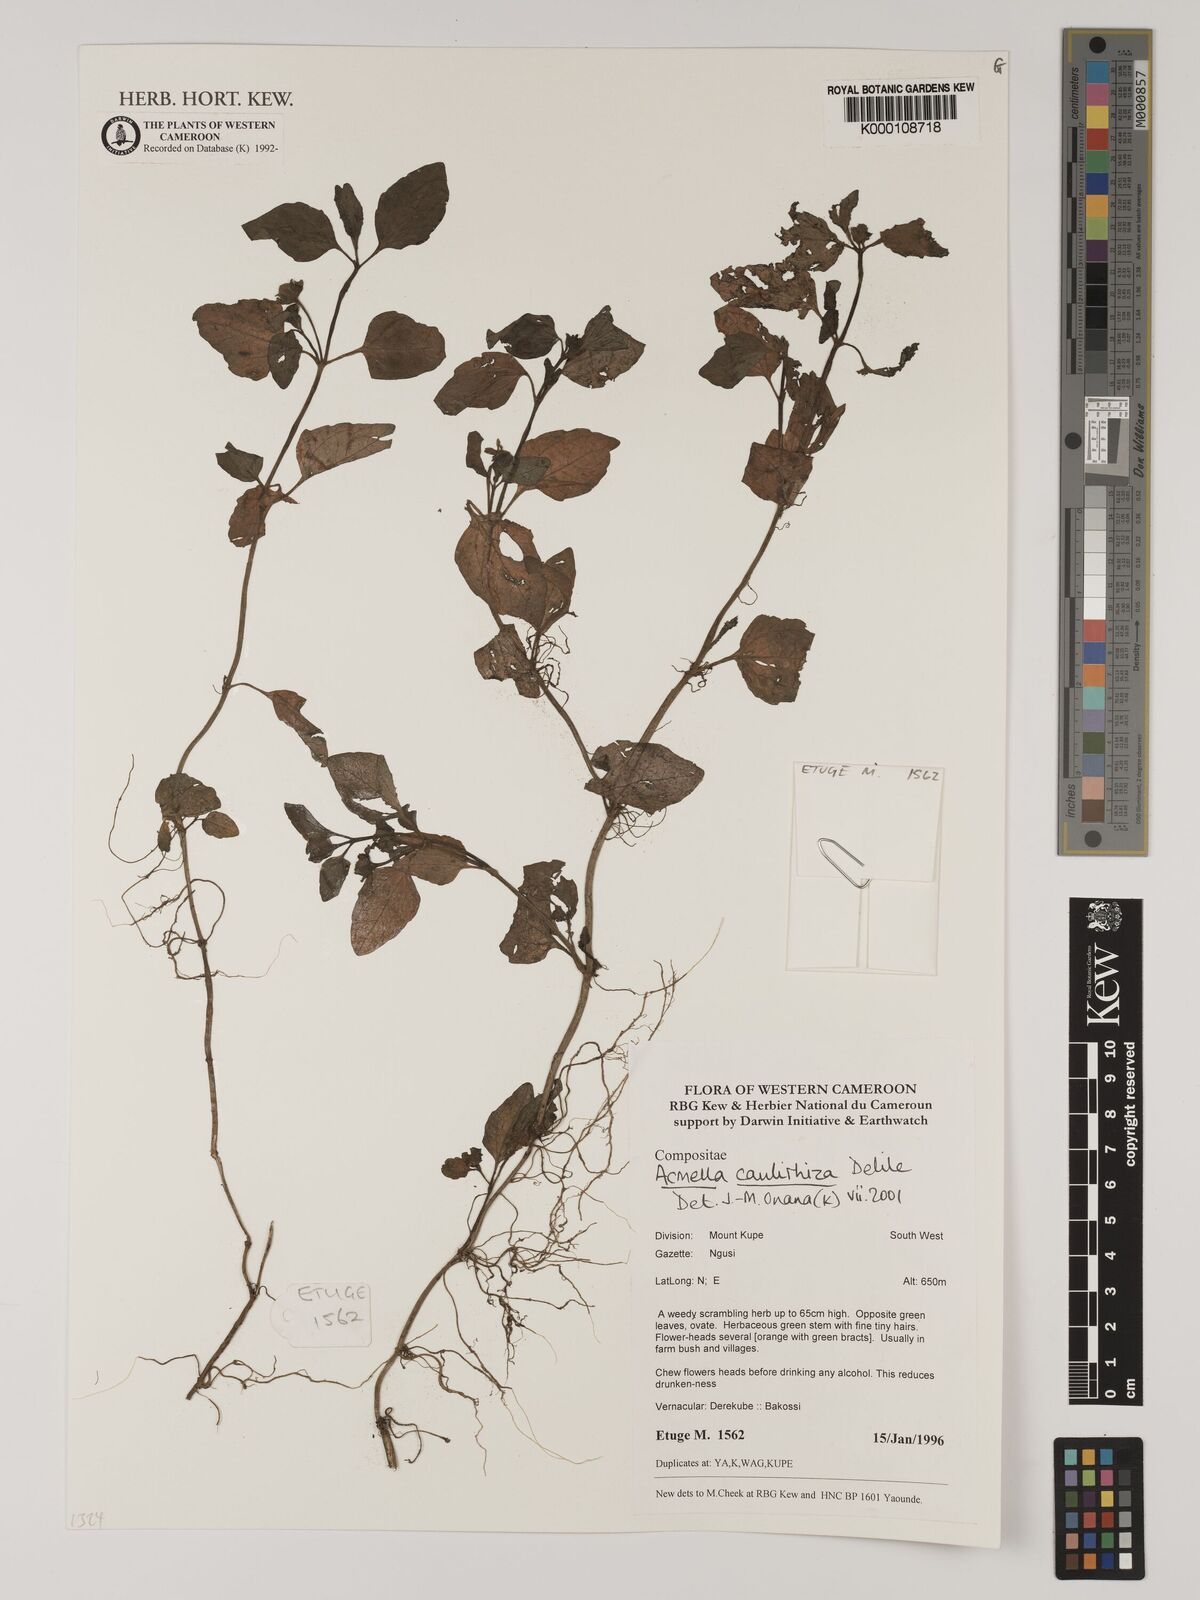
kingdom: Plantae
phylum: Tracheophyta
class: Magnoliopsida
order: Asterales
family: Asteraceae
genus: Acmella
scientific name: Acmella caulirhiza
